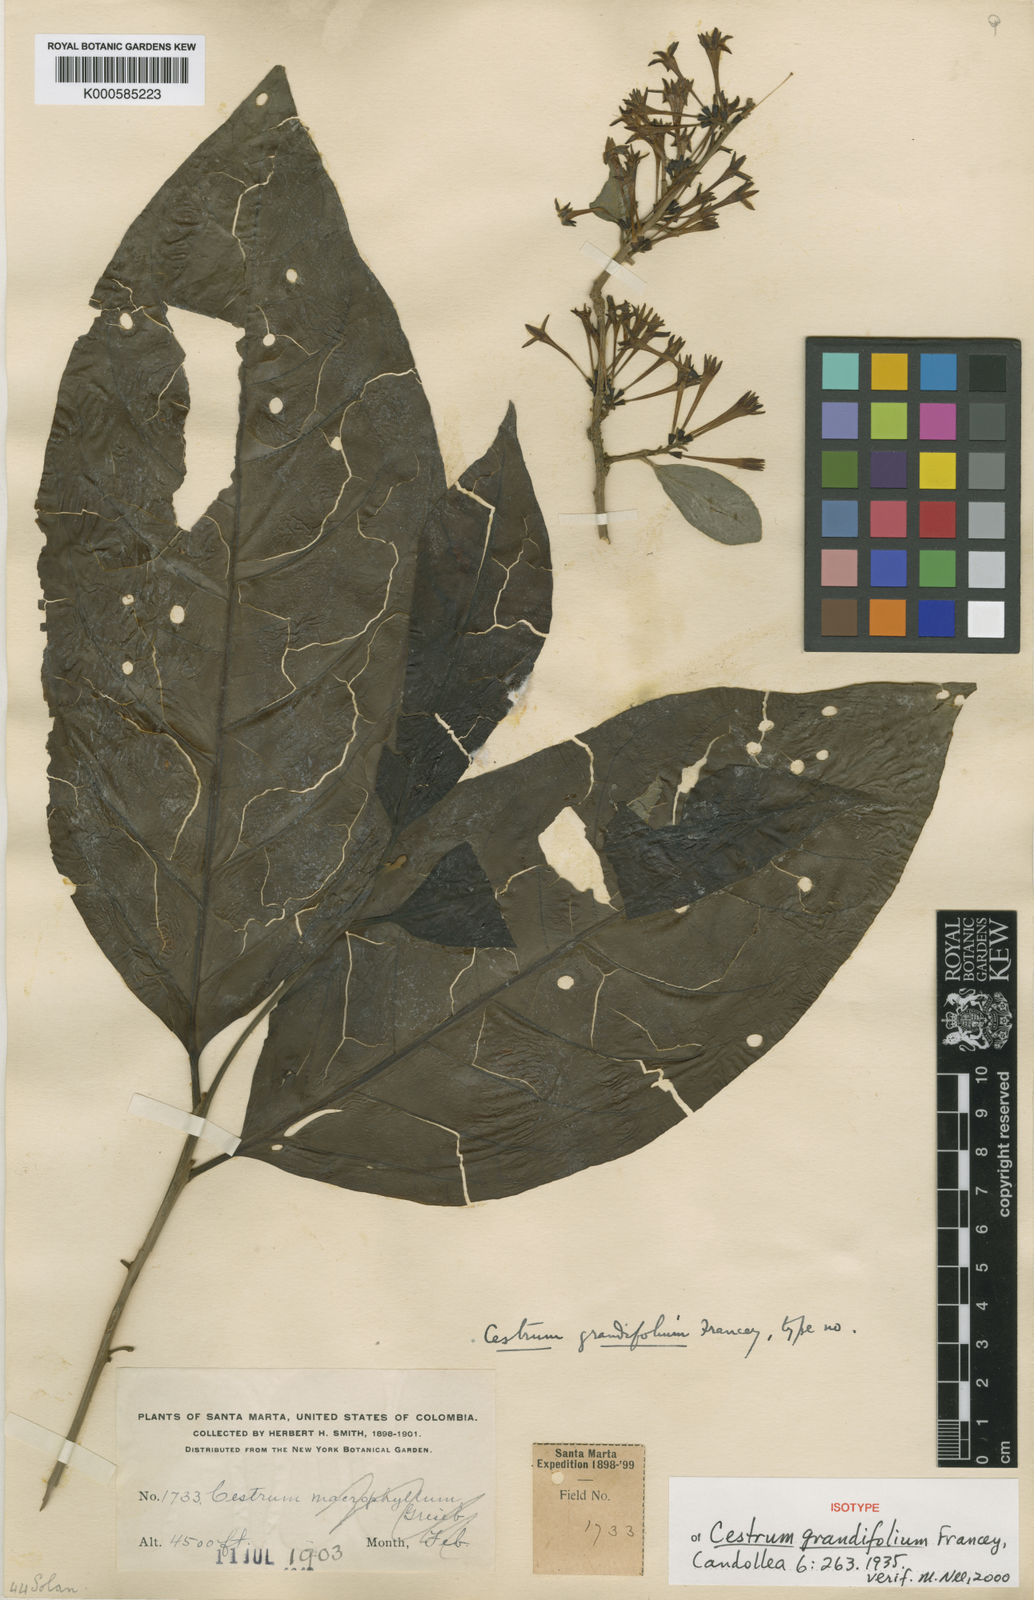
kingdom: Plantae
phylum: Tracheophyta
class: Magnoliopsida
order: Solanales
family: Solanaceae
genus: Cestrum
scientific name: Cestrum grandifolium
